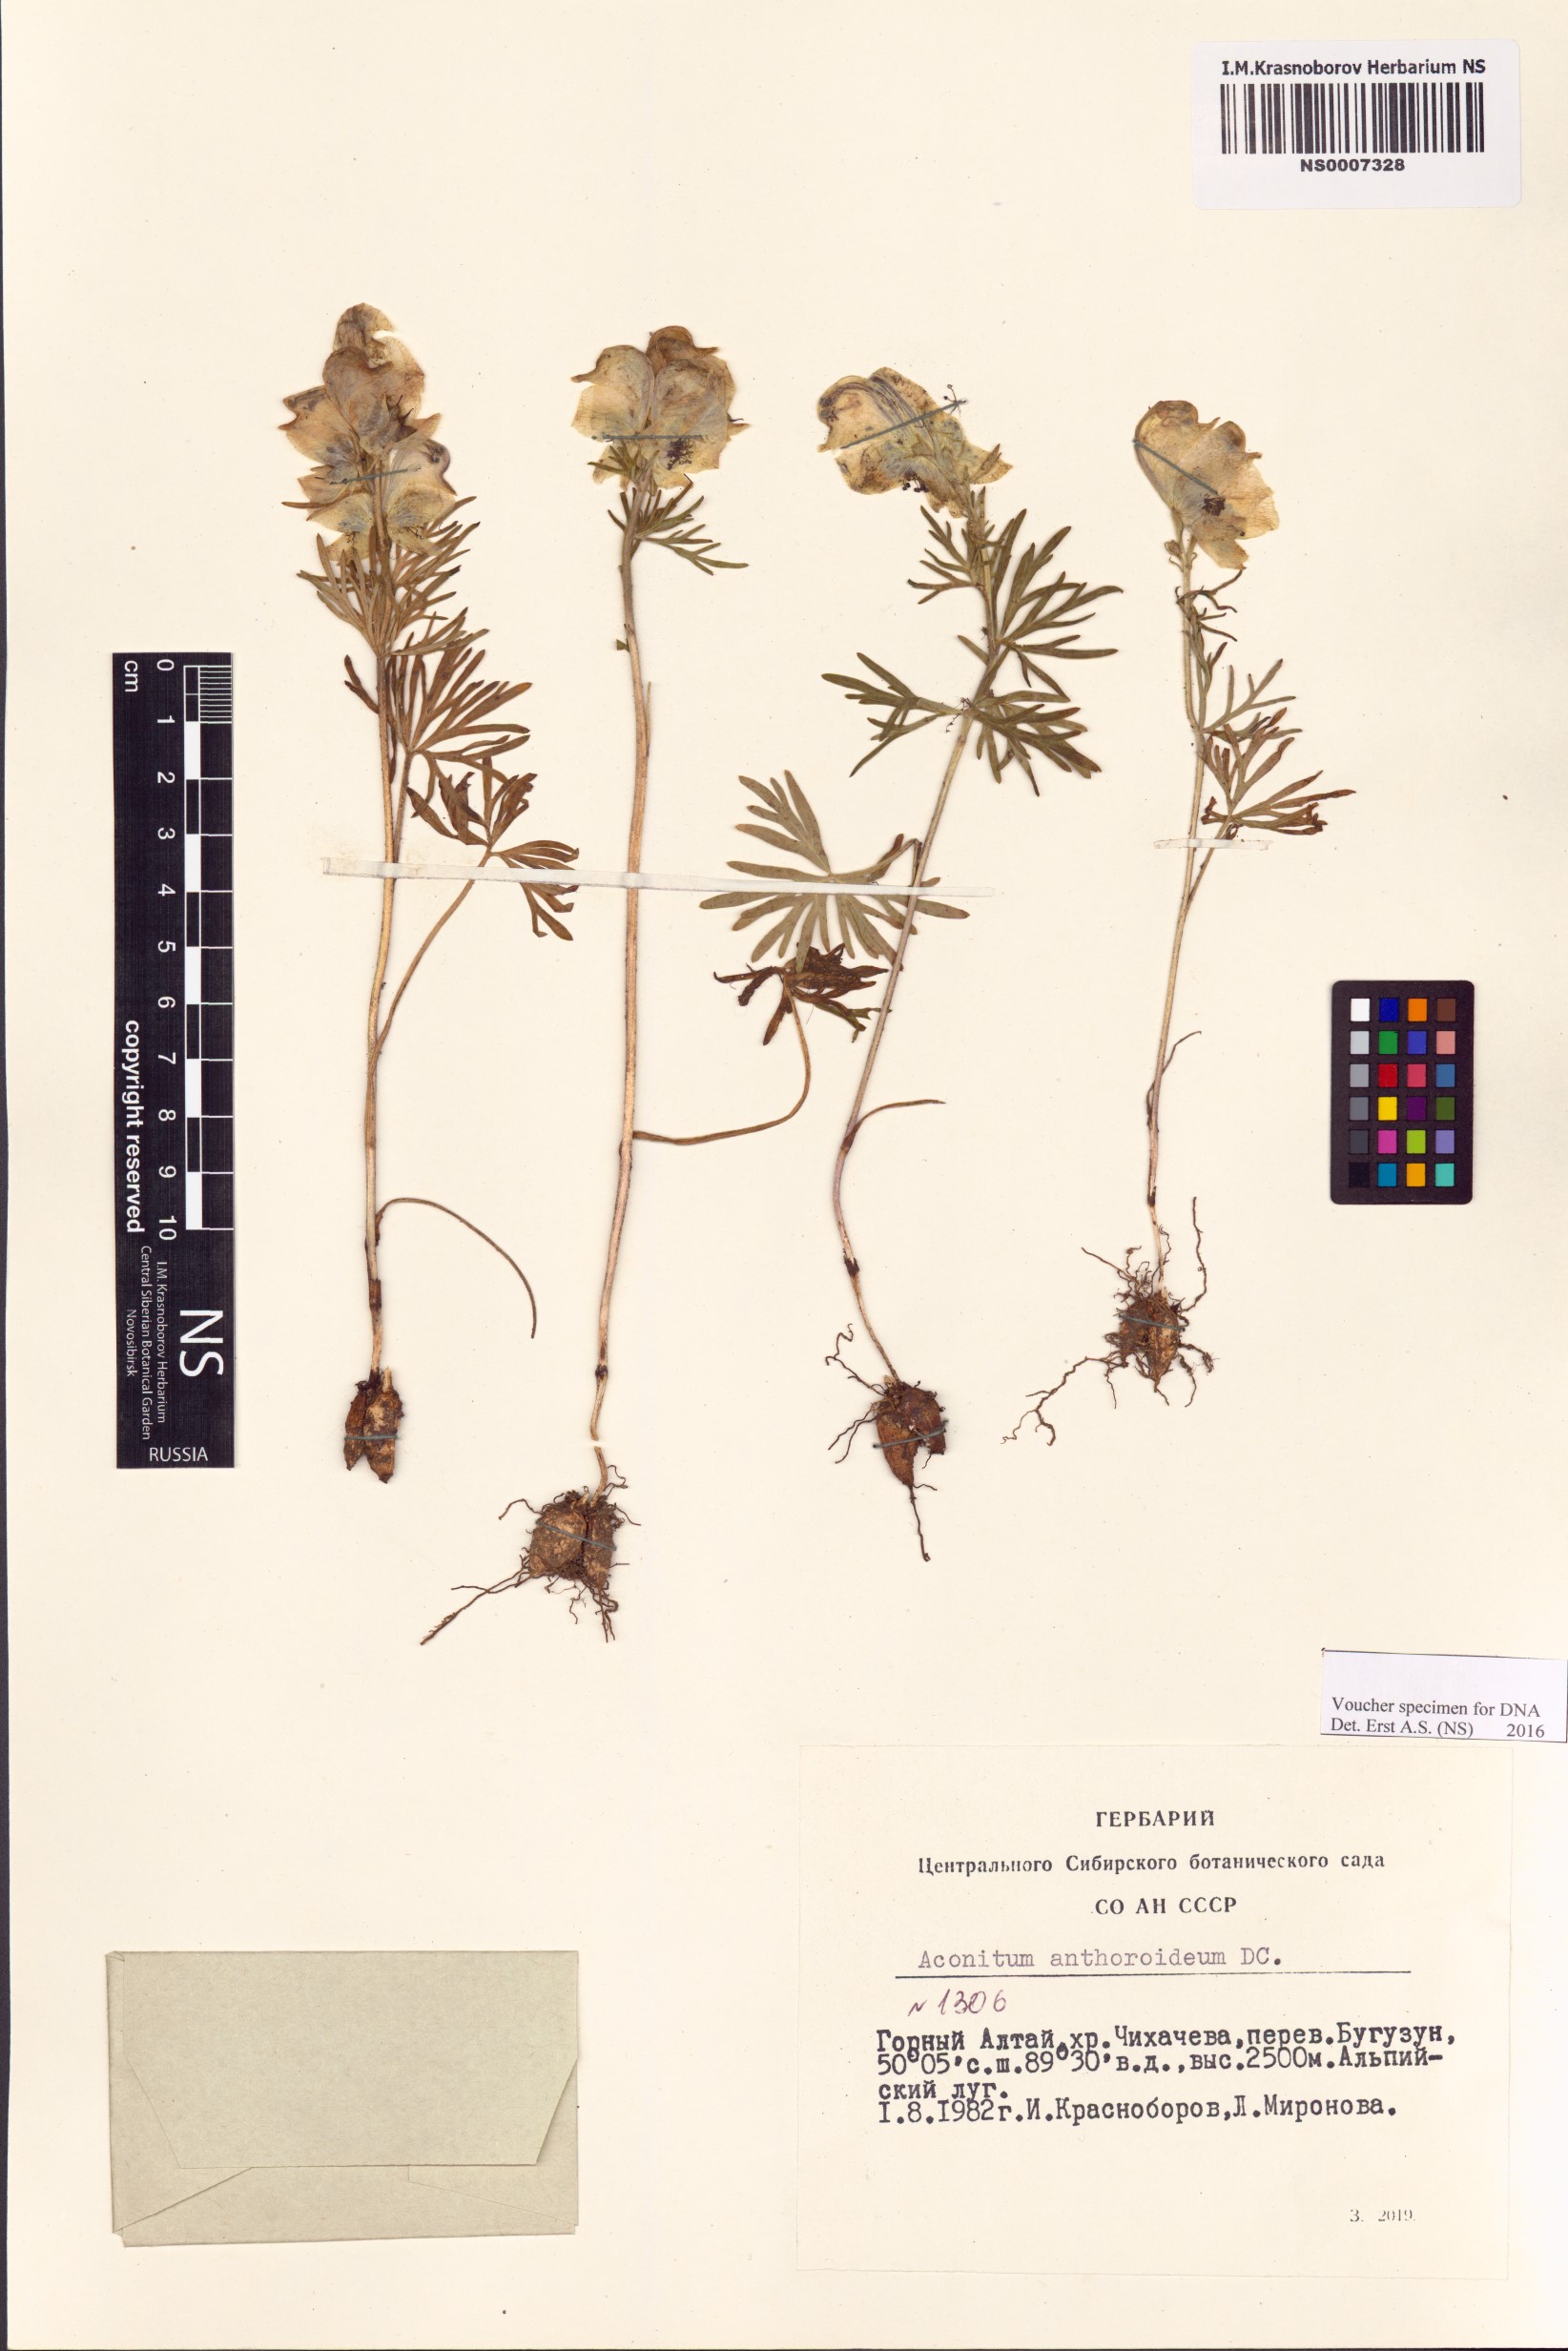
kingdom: Plantae
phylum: Tracheophyta
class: Magnoliopsida
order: Ranunculales
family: Ranunculaceae
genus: Aconitum
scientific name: Aconitum anthoroideum
